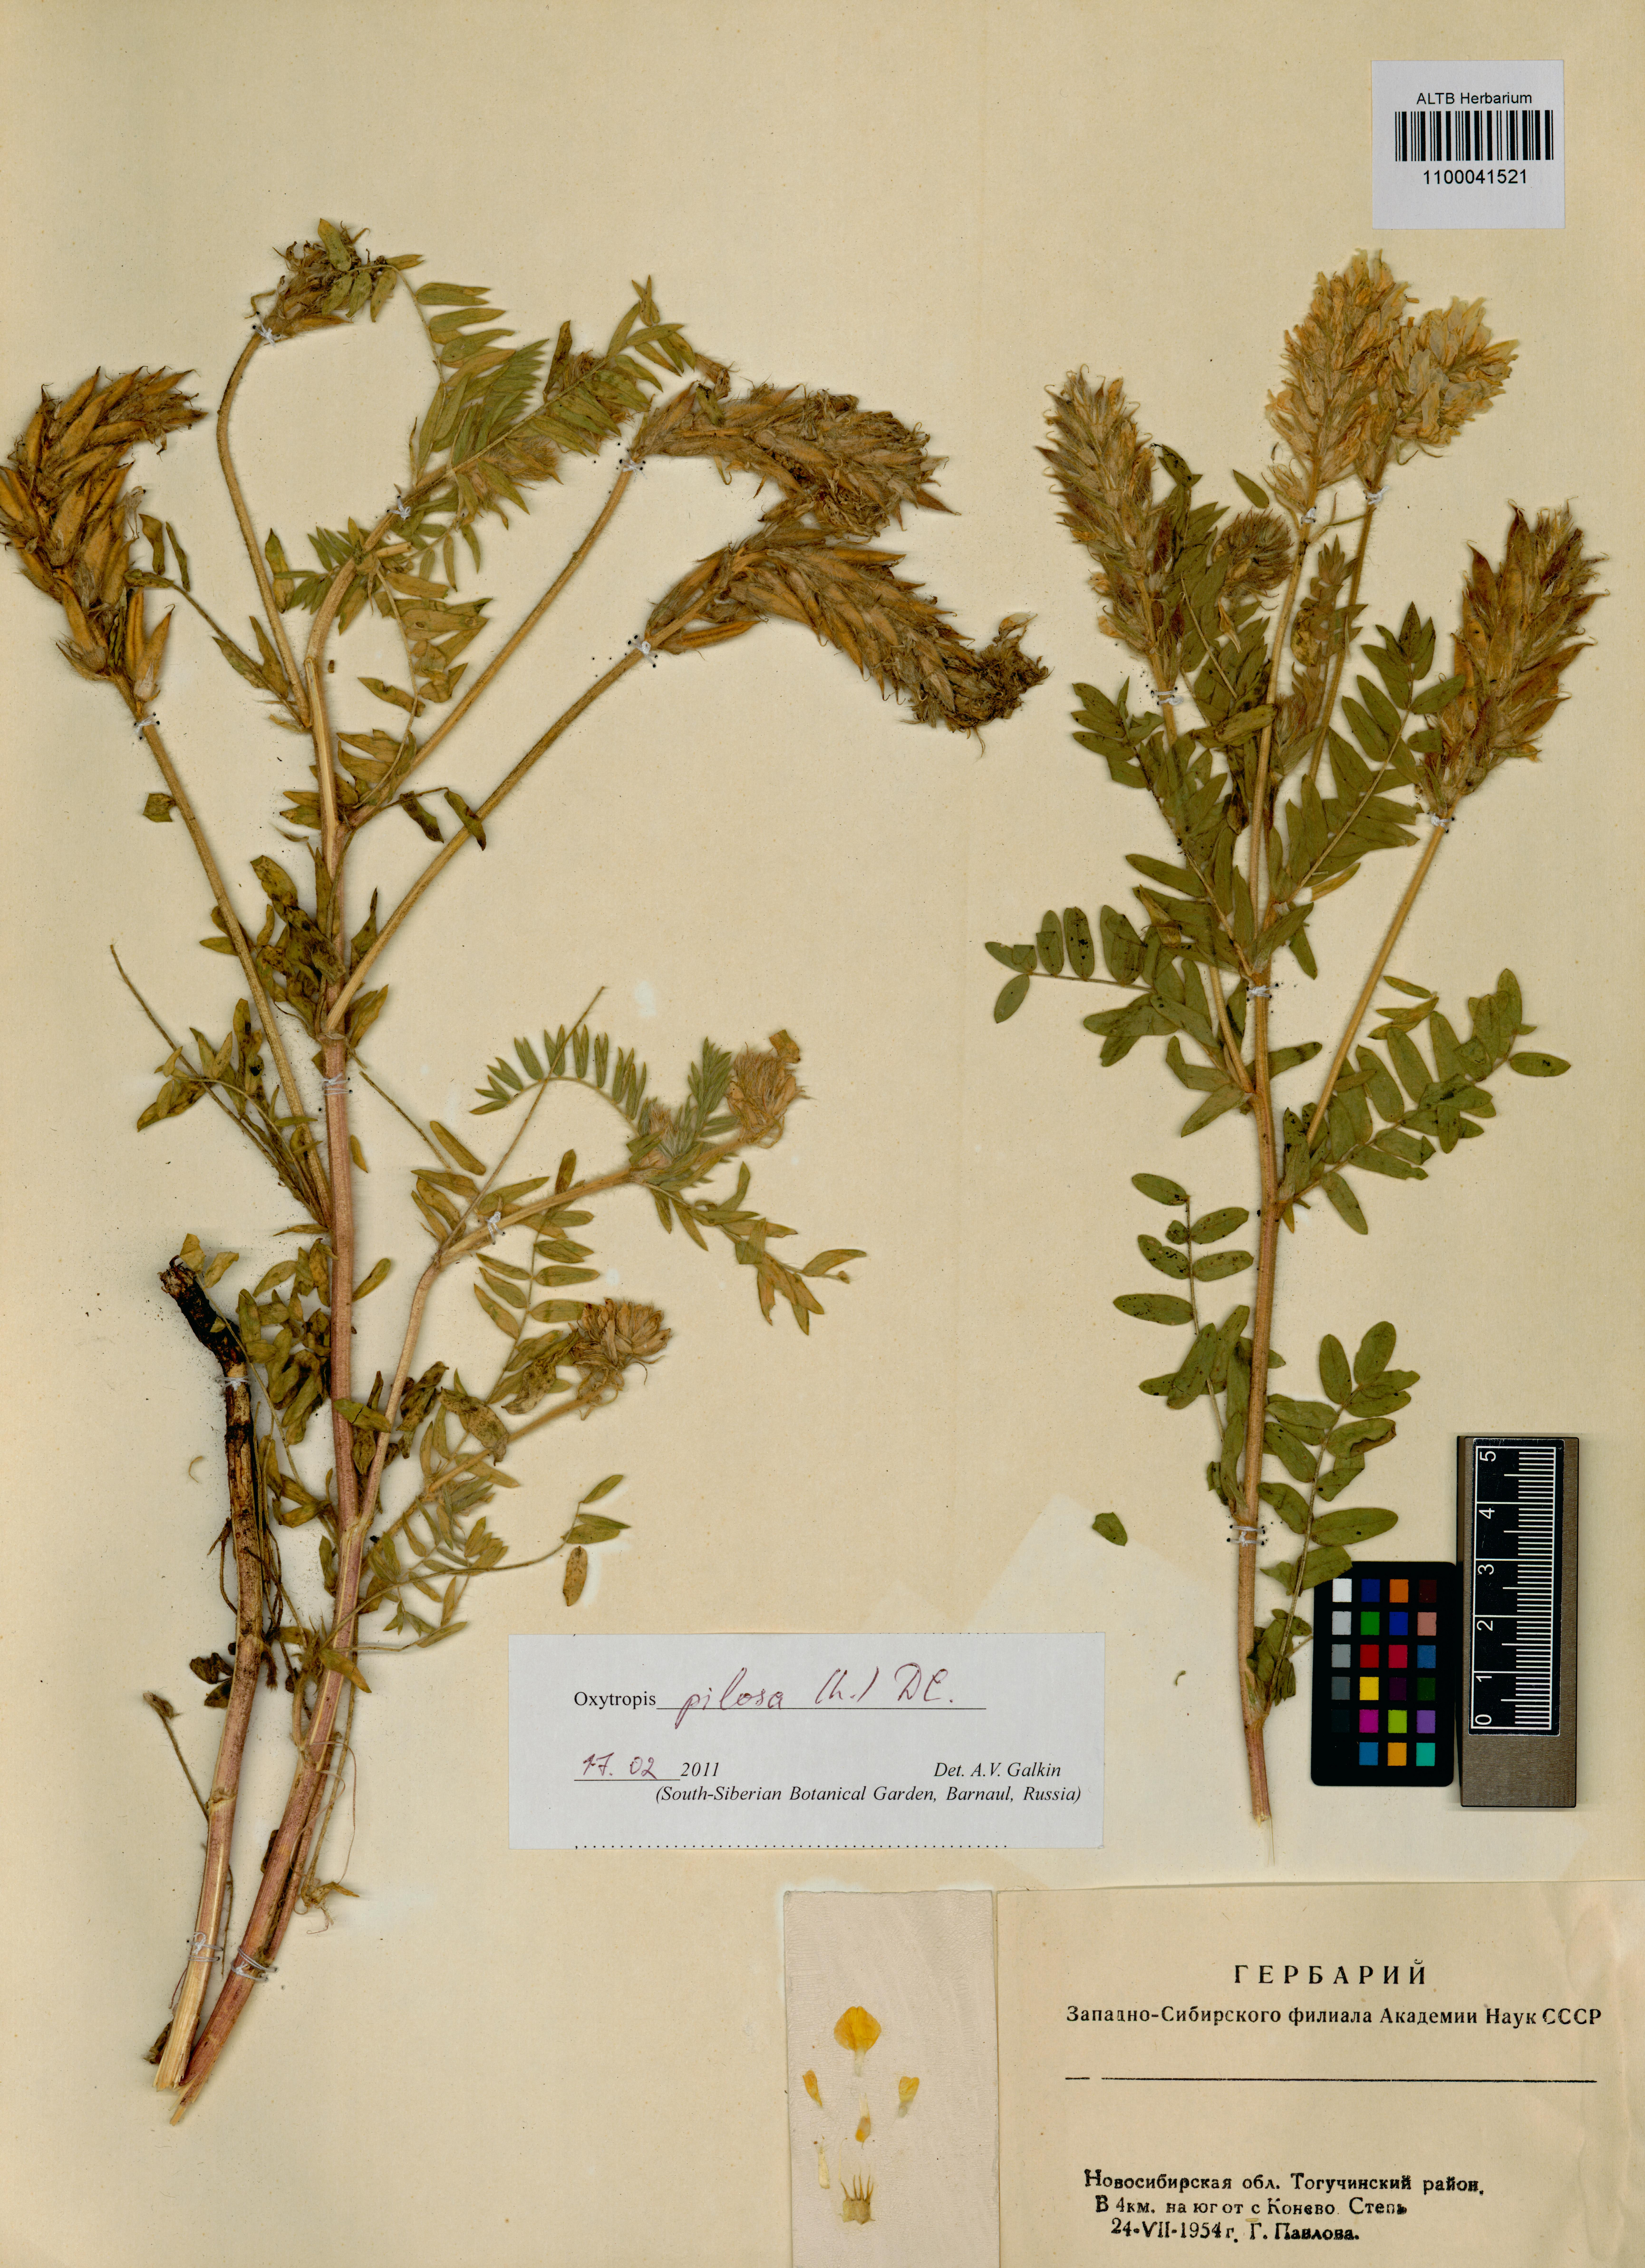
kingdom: Plantae
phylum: Tracheophyta
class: Magnoliopsida
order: Fabales
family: Fabaceae
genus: Oxytropis
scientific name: Oxytropis pilosa
